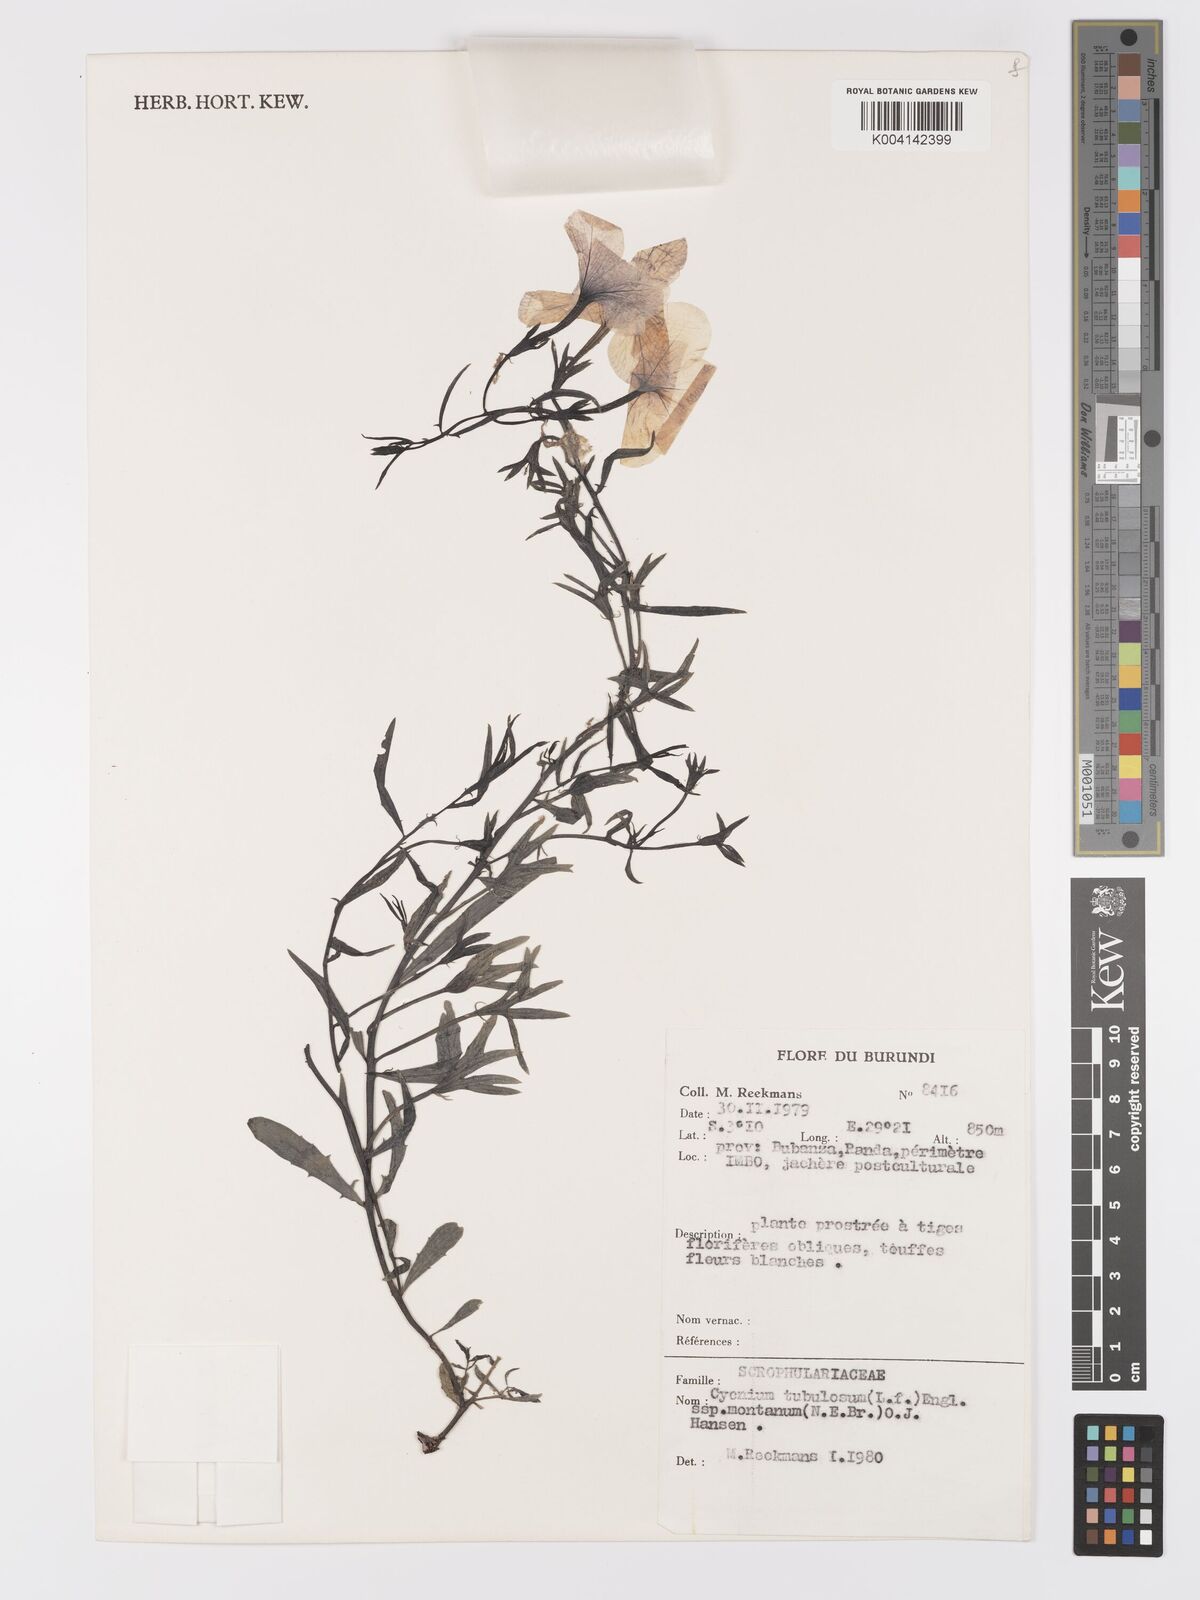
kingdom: Plantae
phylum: Tracheophyta
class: Magnoliopsida
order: Lamiales
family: Orobanchaceae
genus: Cycnium
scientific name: Cycnium tubulosum
